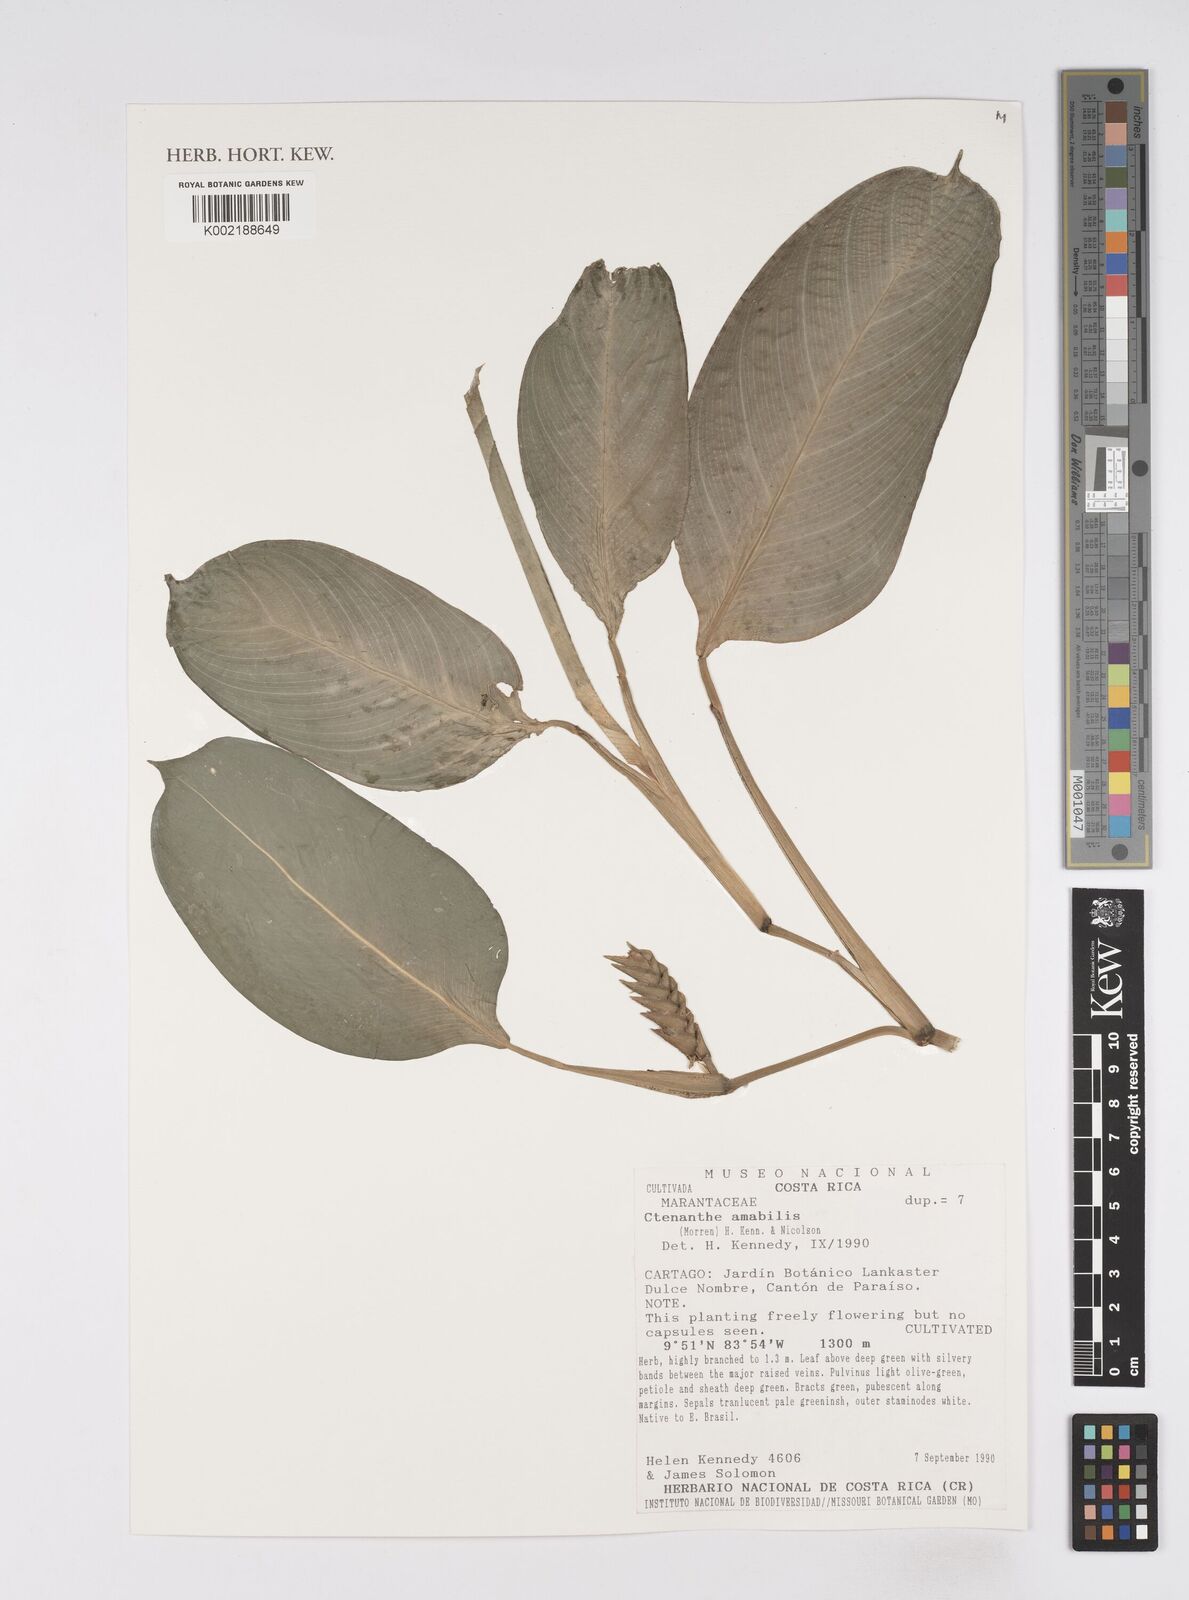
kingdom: Plantae
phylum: Tracheophyta
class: Liliopsida
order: Zingiberales
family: Marantaceae
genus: Ctenanthe
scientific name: Ctenanthe amabilis
